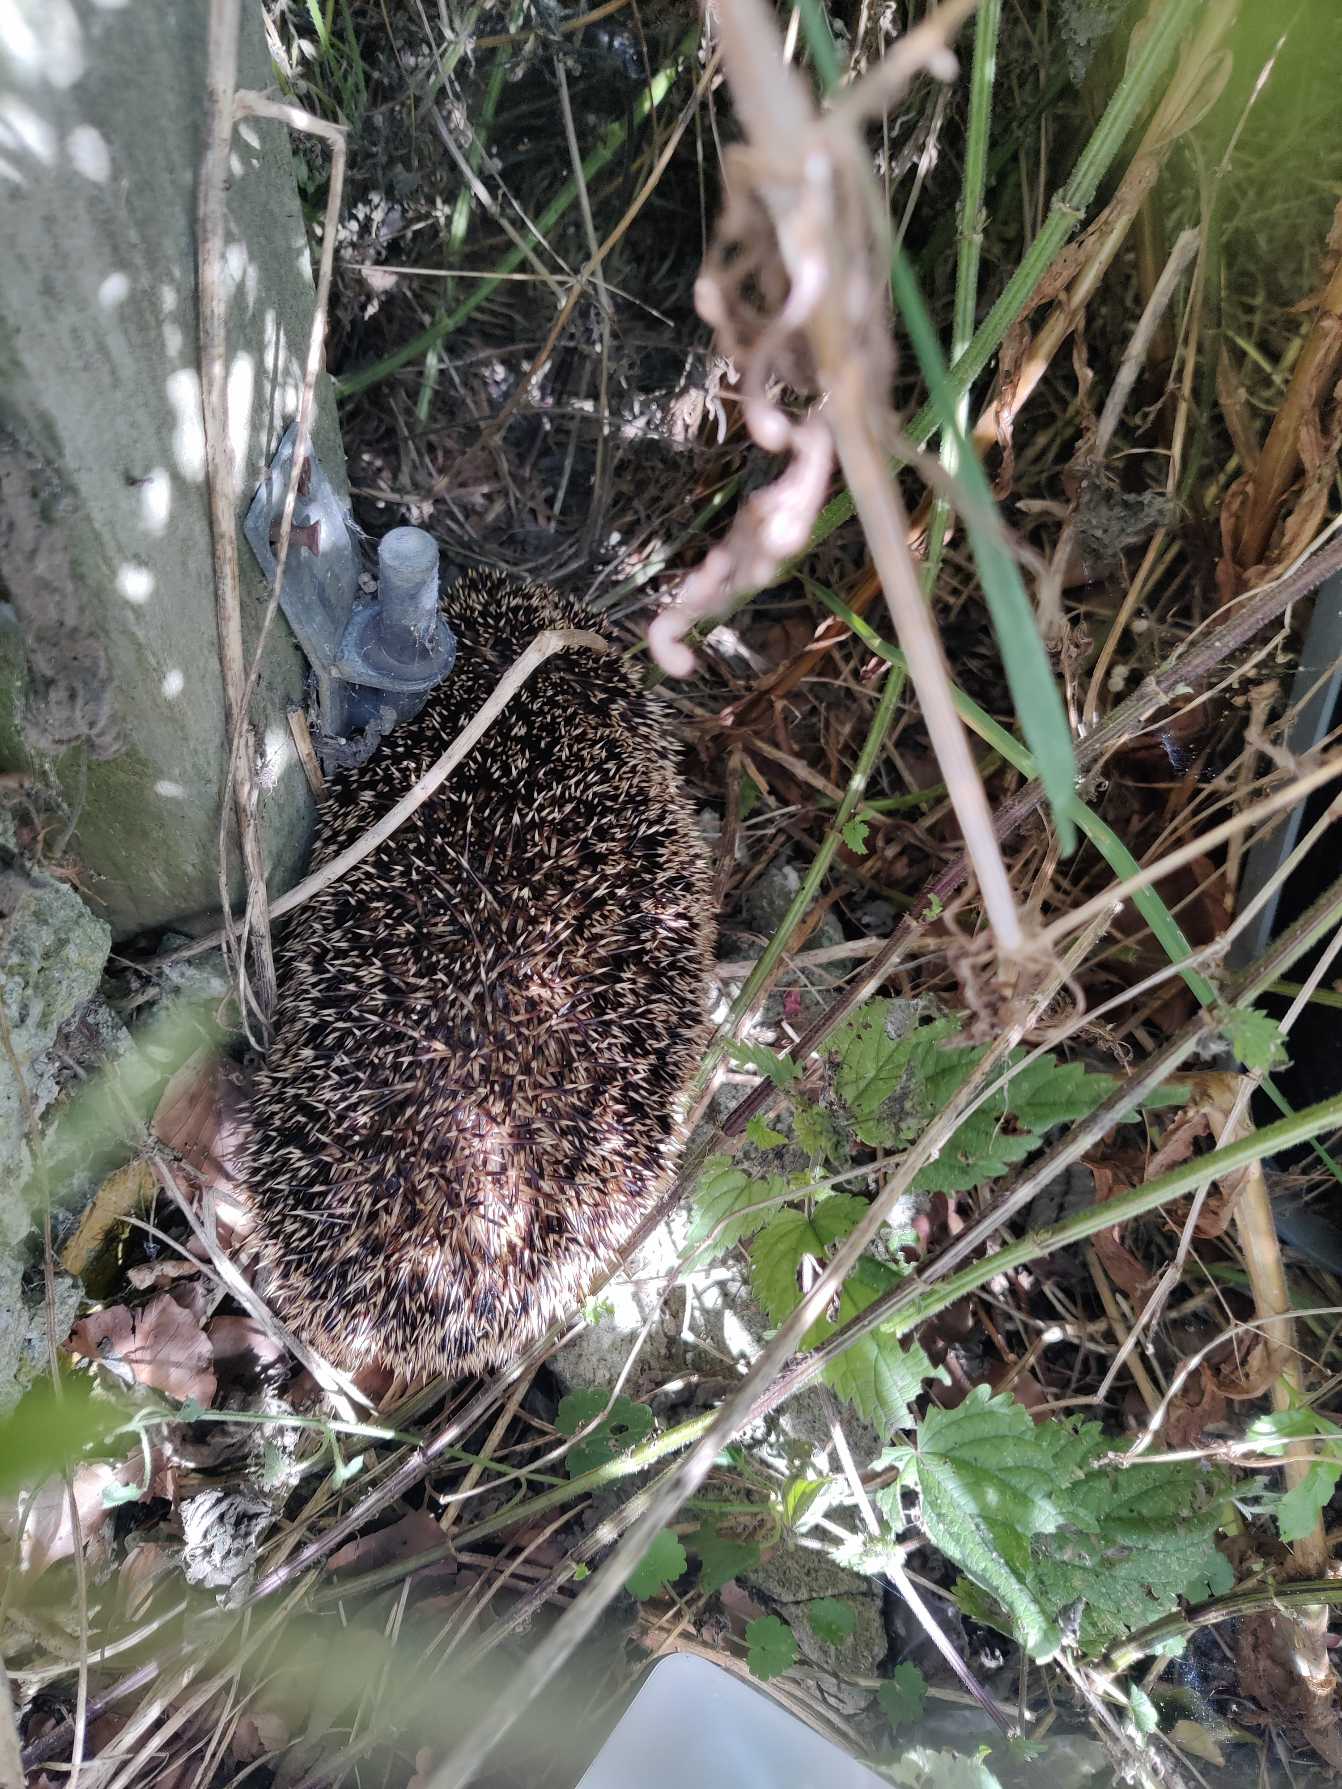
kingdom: Animalia
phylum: Chordata
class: Mammalia
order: Erinaceomorpha
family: Erinaceidae
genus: Erinaceus
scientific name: Erinaceus europaeus
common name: Pindsvin
